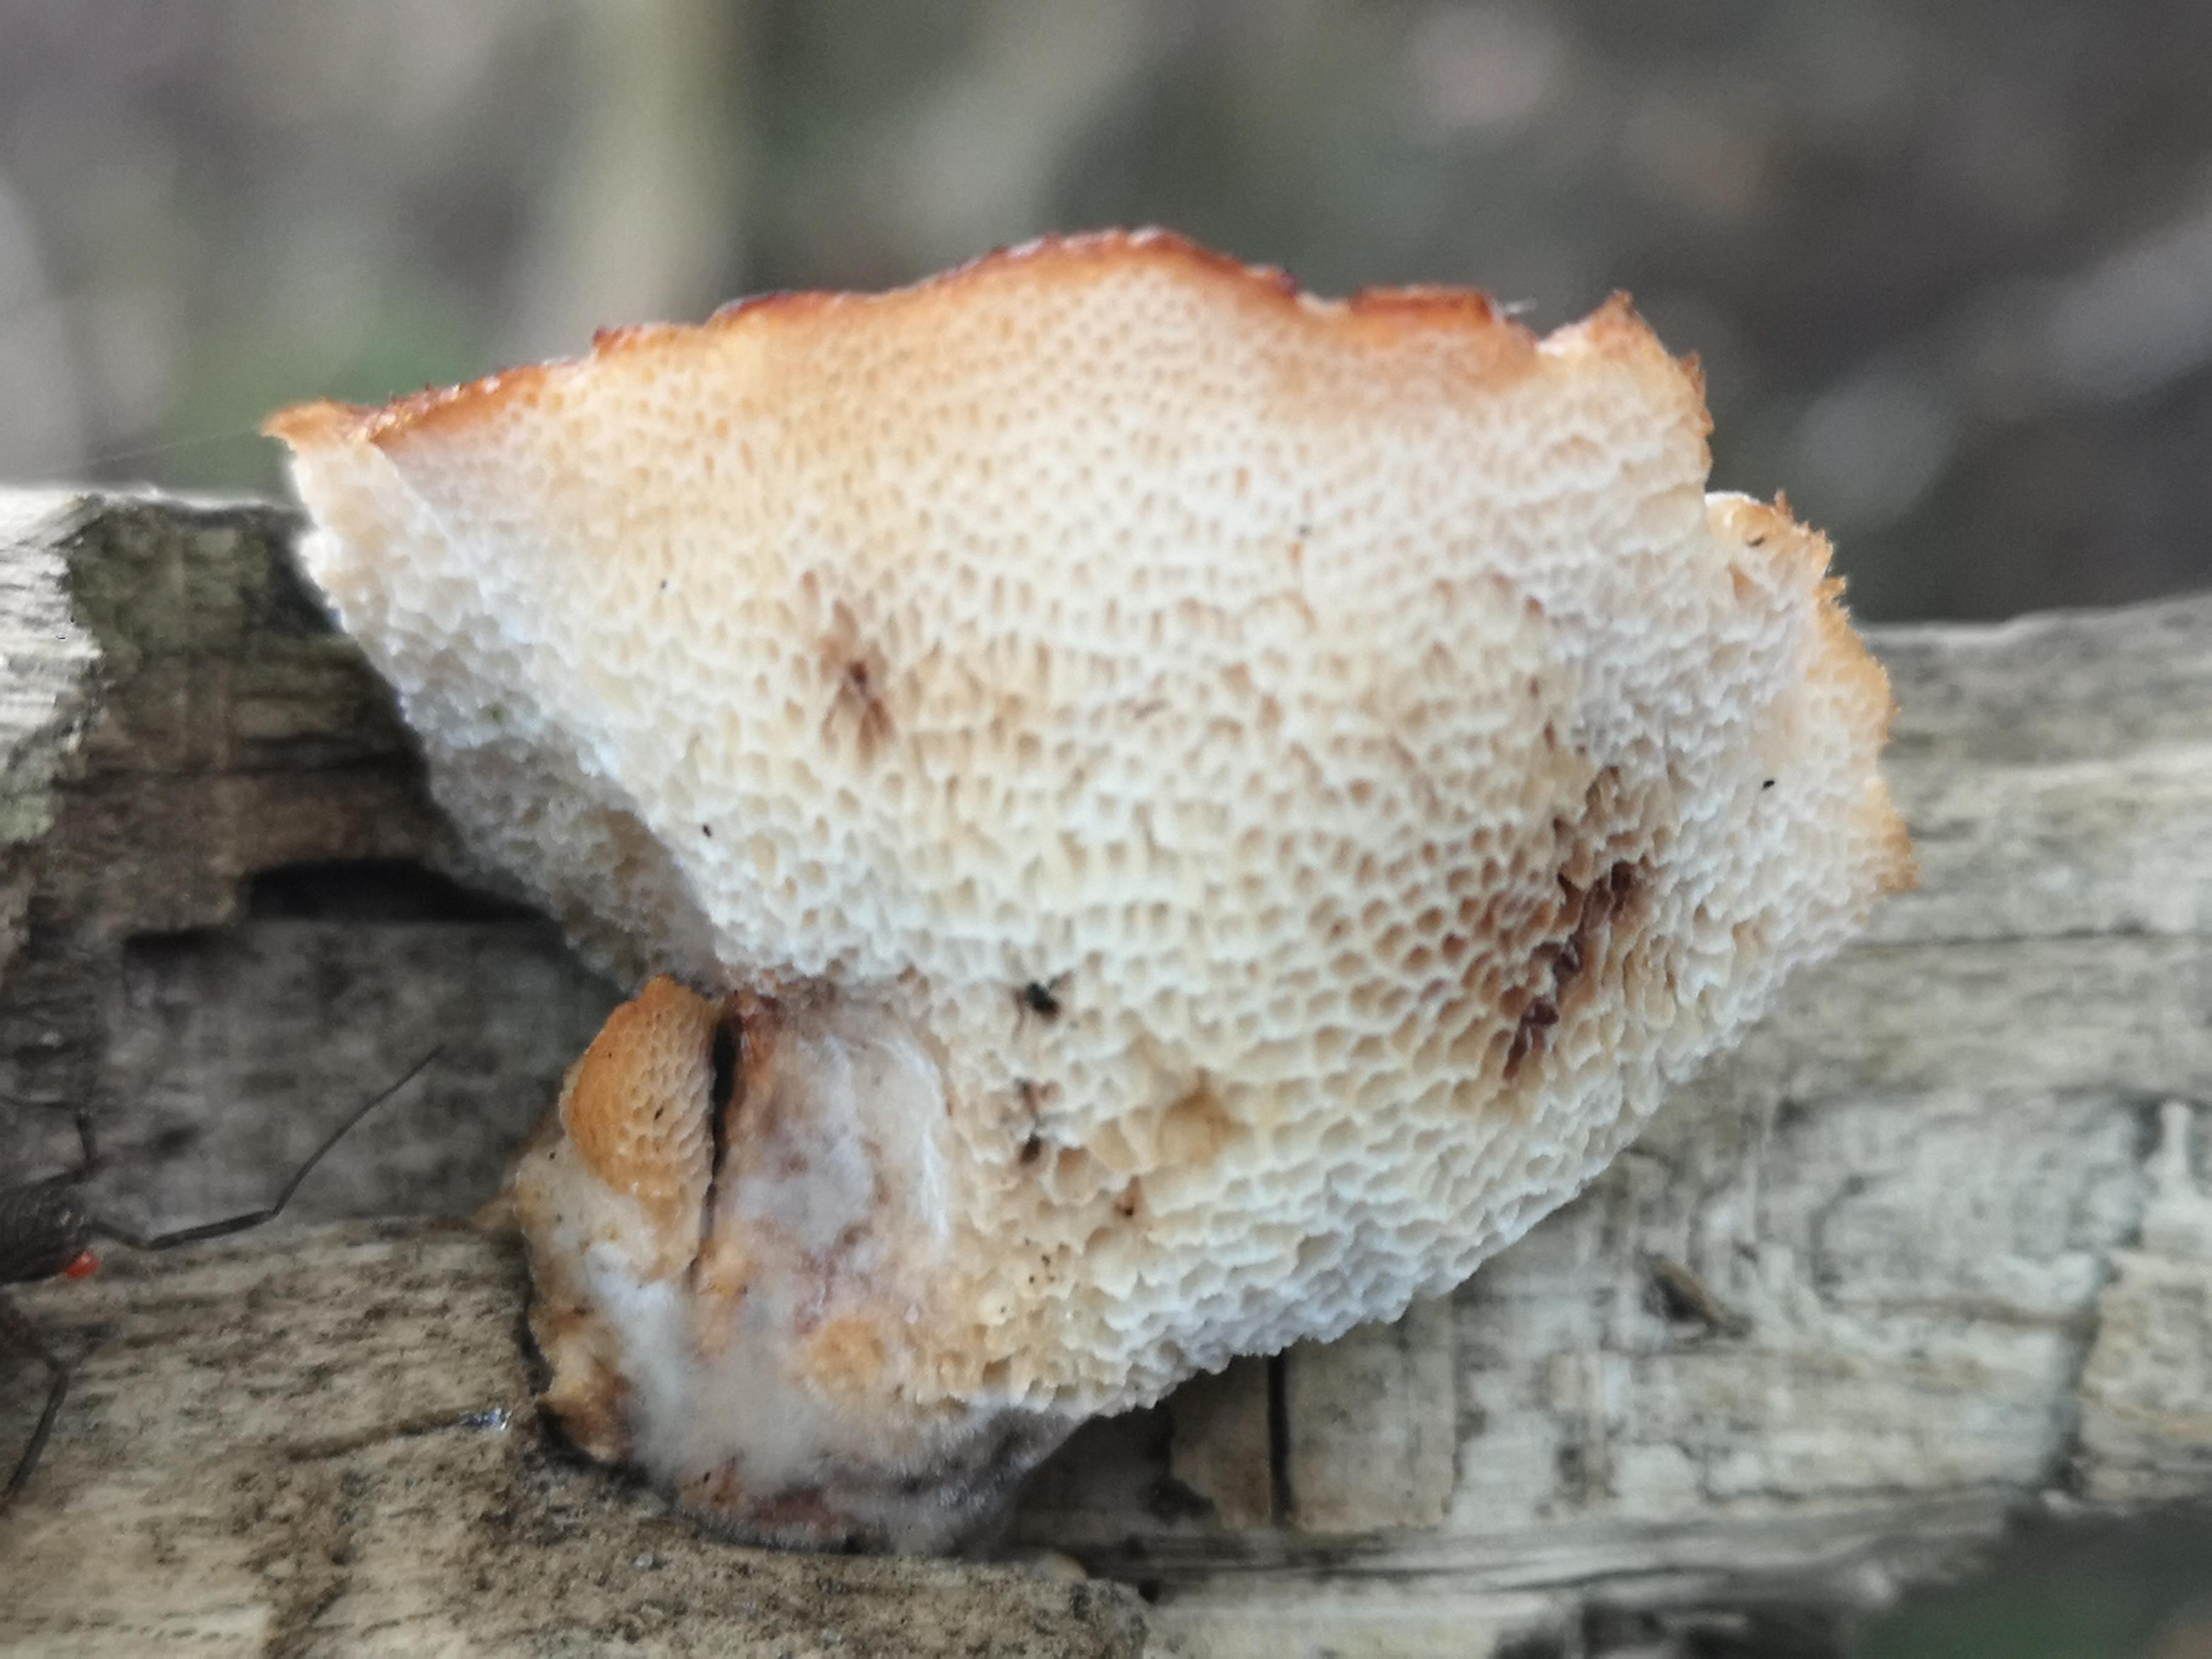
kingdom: Fungi
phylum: Basidiomycota
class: Agaricomycetes
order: Polyporales
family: Polyporaceae
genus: Polyporus
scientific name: Polyporus tuberaster
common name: knoldet stilkporesvamp
